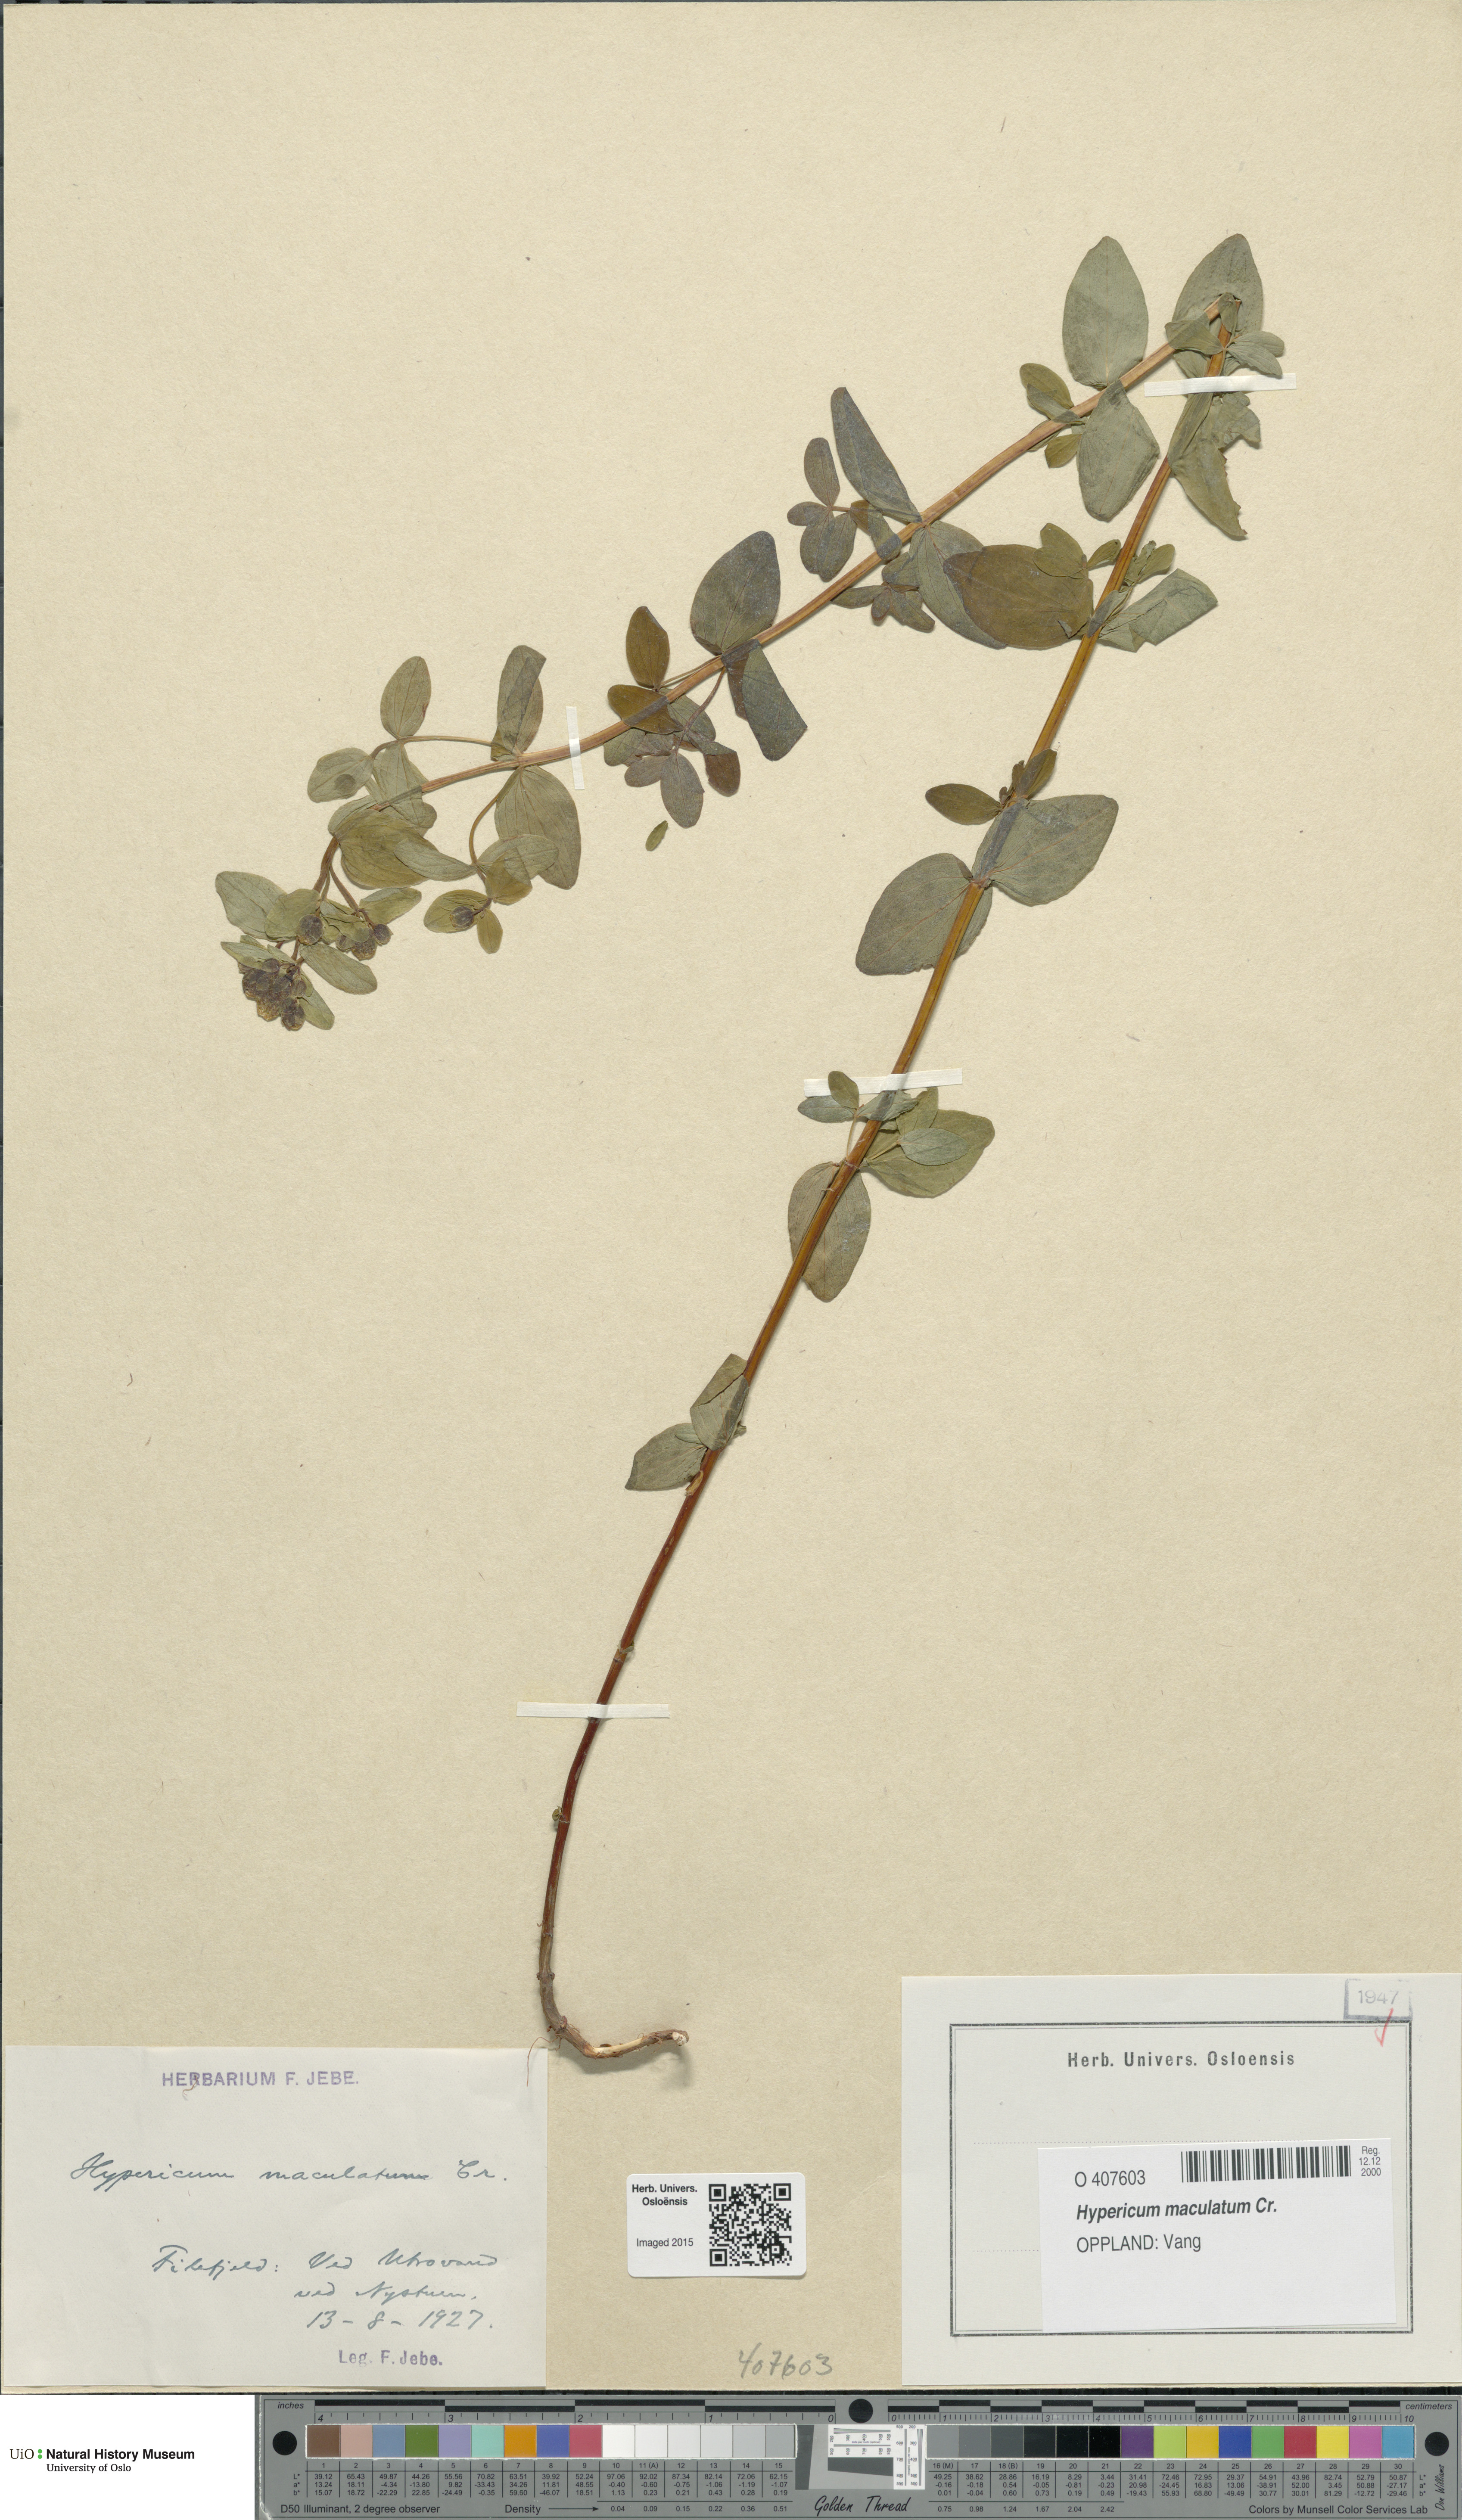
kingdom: Plantae
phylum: Tracheophyta
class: Magnoliopsida
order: Malpighiales
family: Hypericaceae
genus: Hypericum
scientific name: Hypericum maculatum
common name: Imperforate st. john's-wort
